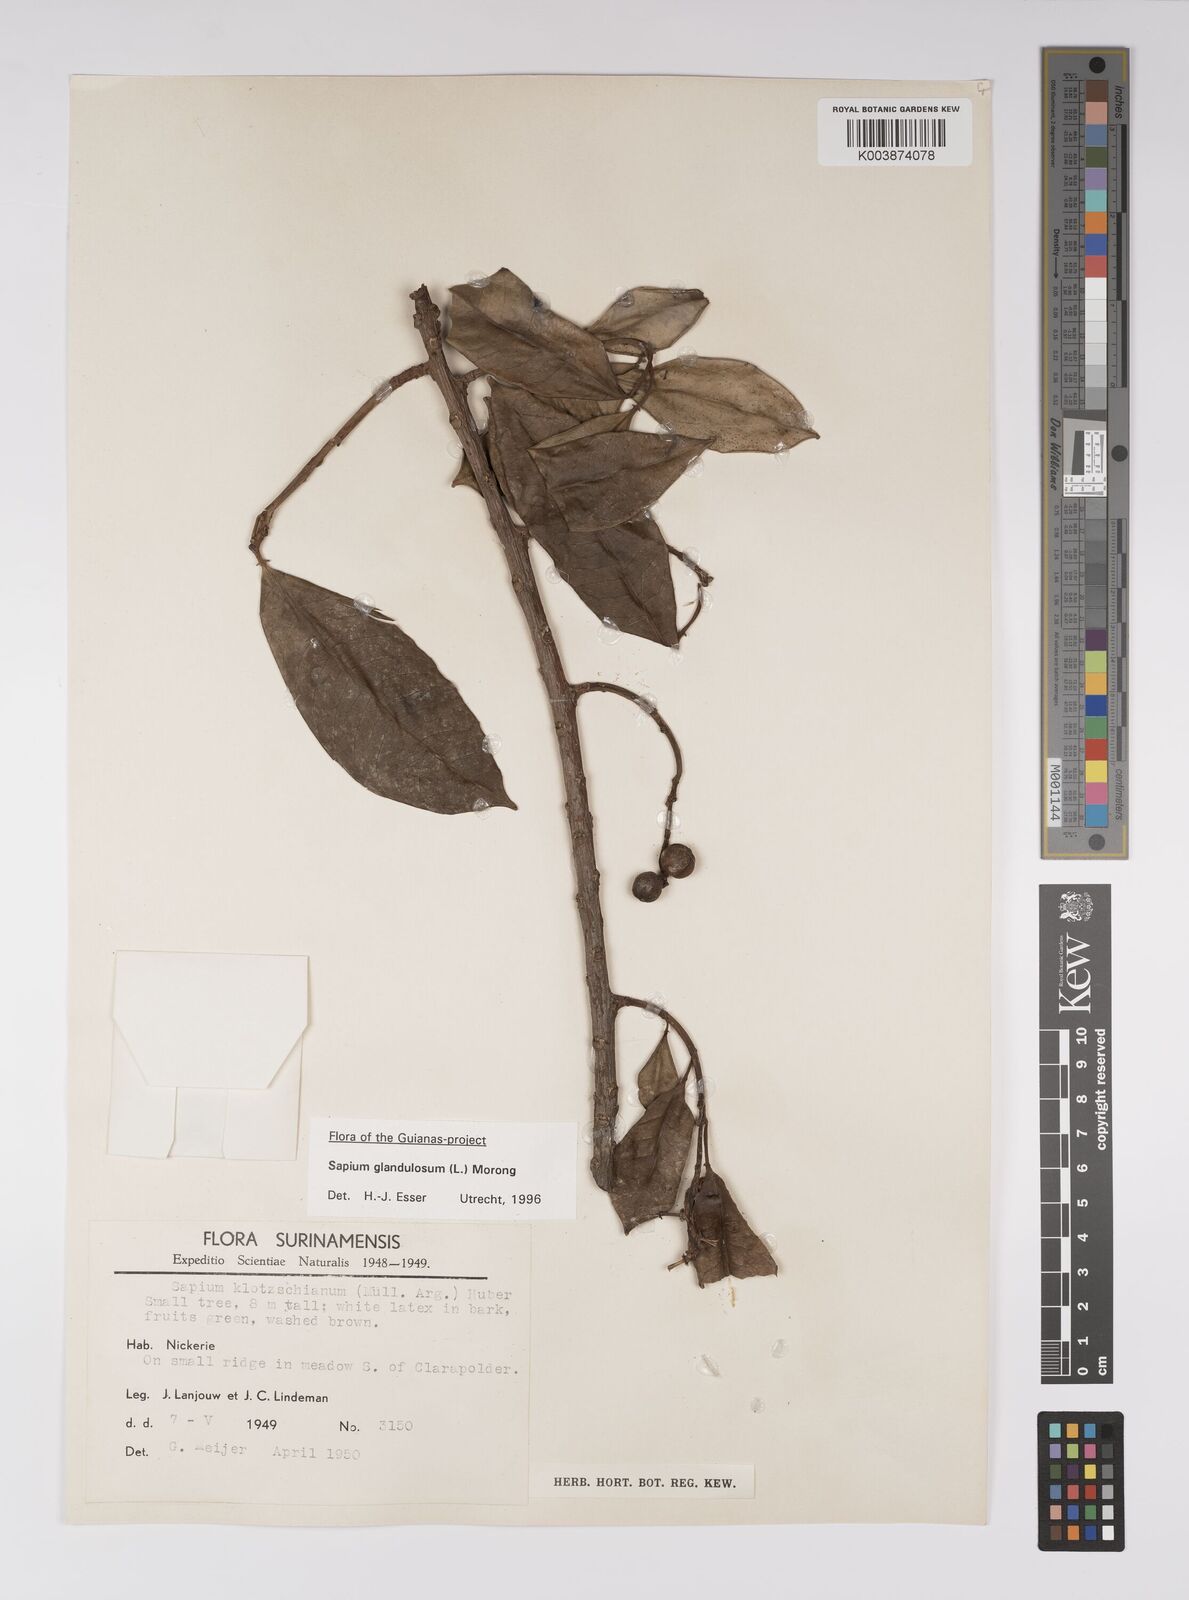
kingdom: Plantae
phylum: Tracheophyta
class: Magnoliopsida
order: Malpighiales
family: Euphorbiaceae
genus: Sapium
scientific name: Sapium glandulosum
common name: Milktree
